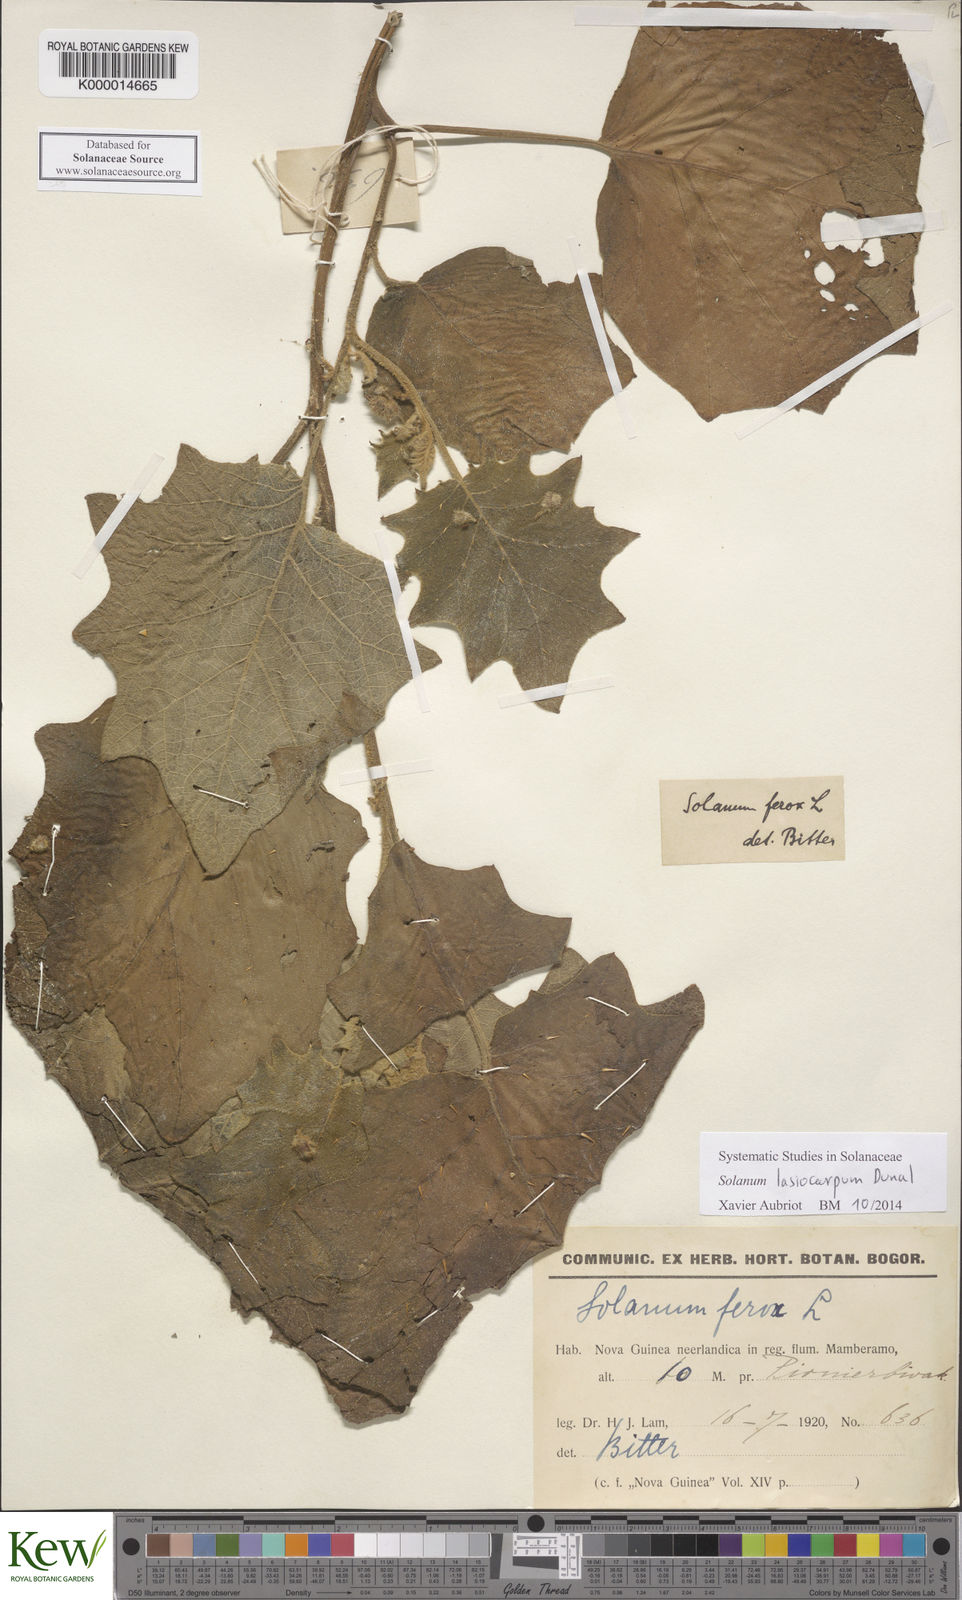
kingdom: Plantae
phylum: Tracheophyta
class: Magnoliopsida
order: Solanales
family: Solanaceae
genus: Solanum
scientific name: Solanum lasiocarpum
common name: Indian nightshade
